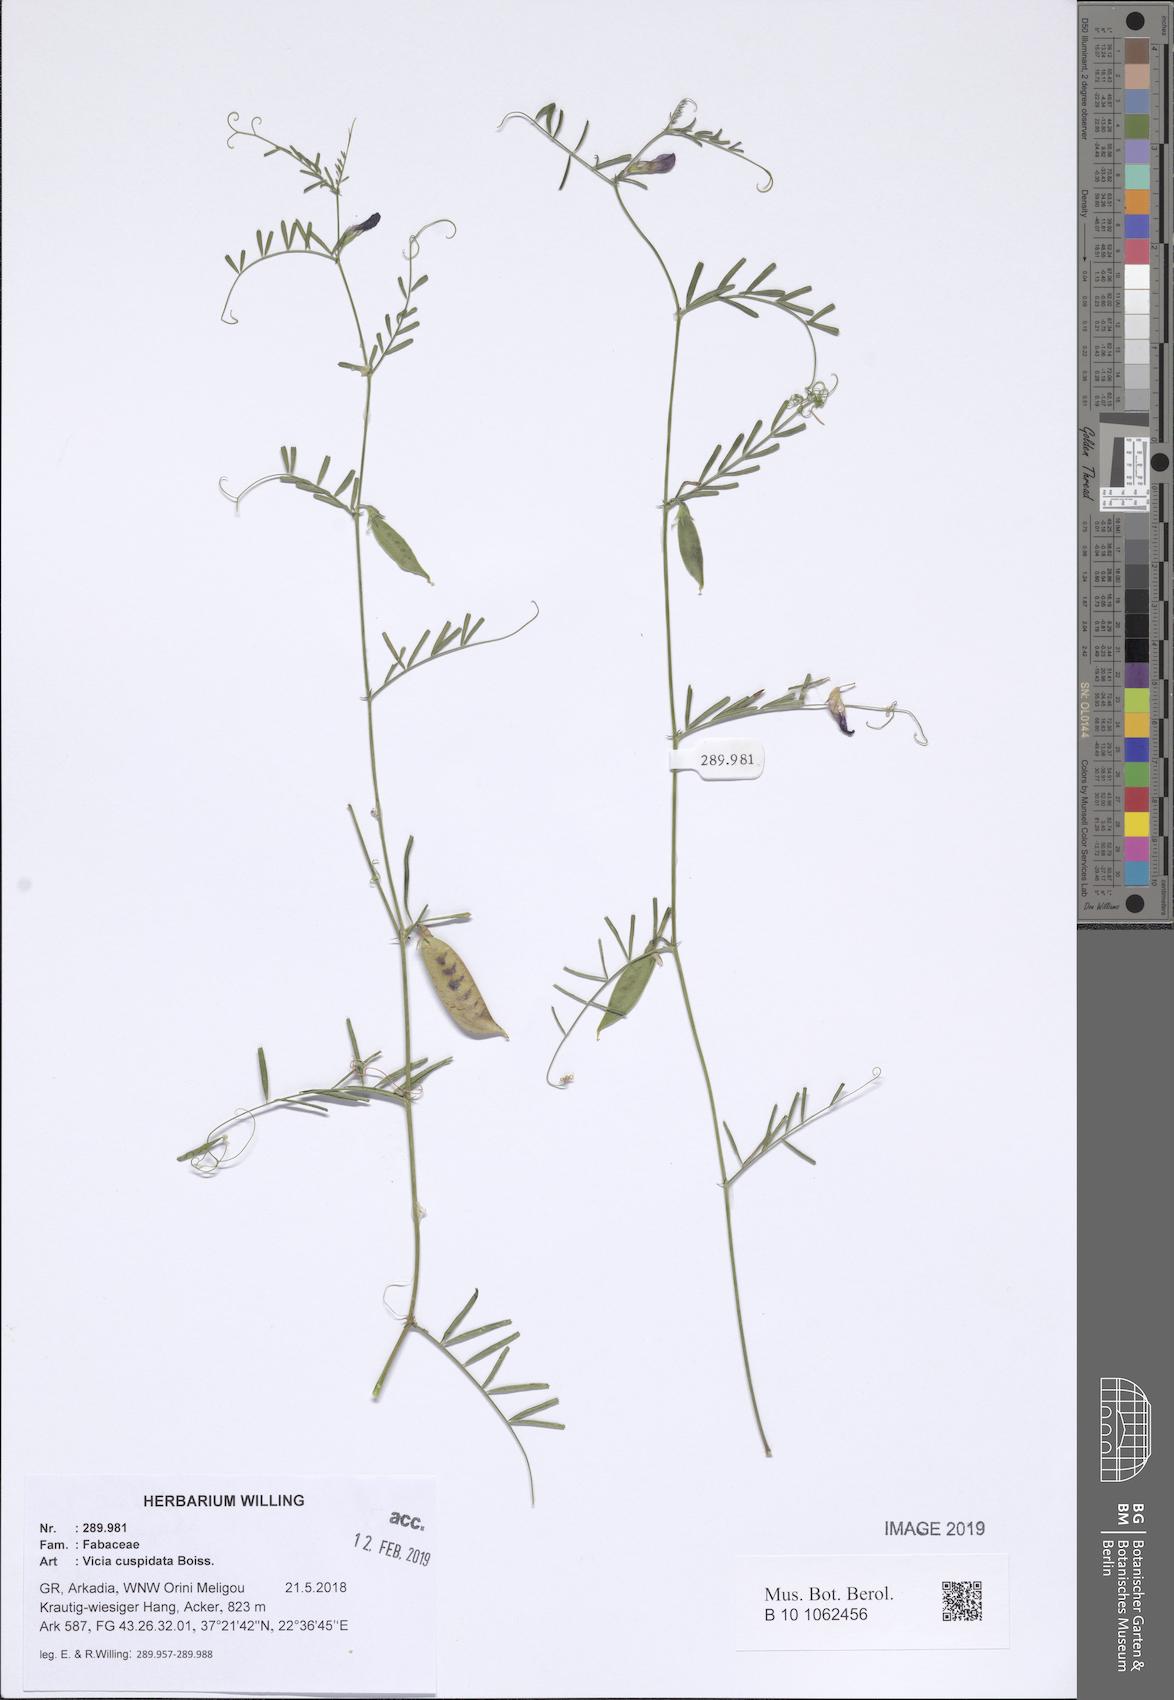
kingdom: Plantae
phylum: Tracheophyta
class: Magnoliopsida
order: Fabales
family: Fabaceae
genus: Vicia
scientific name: Vicia cuspidata
